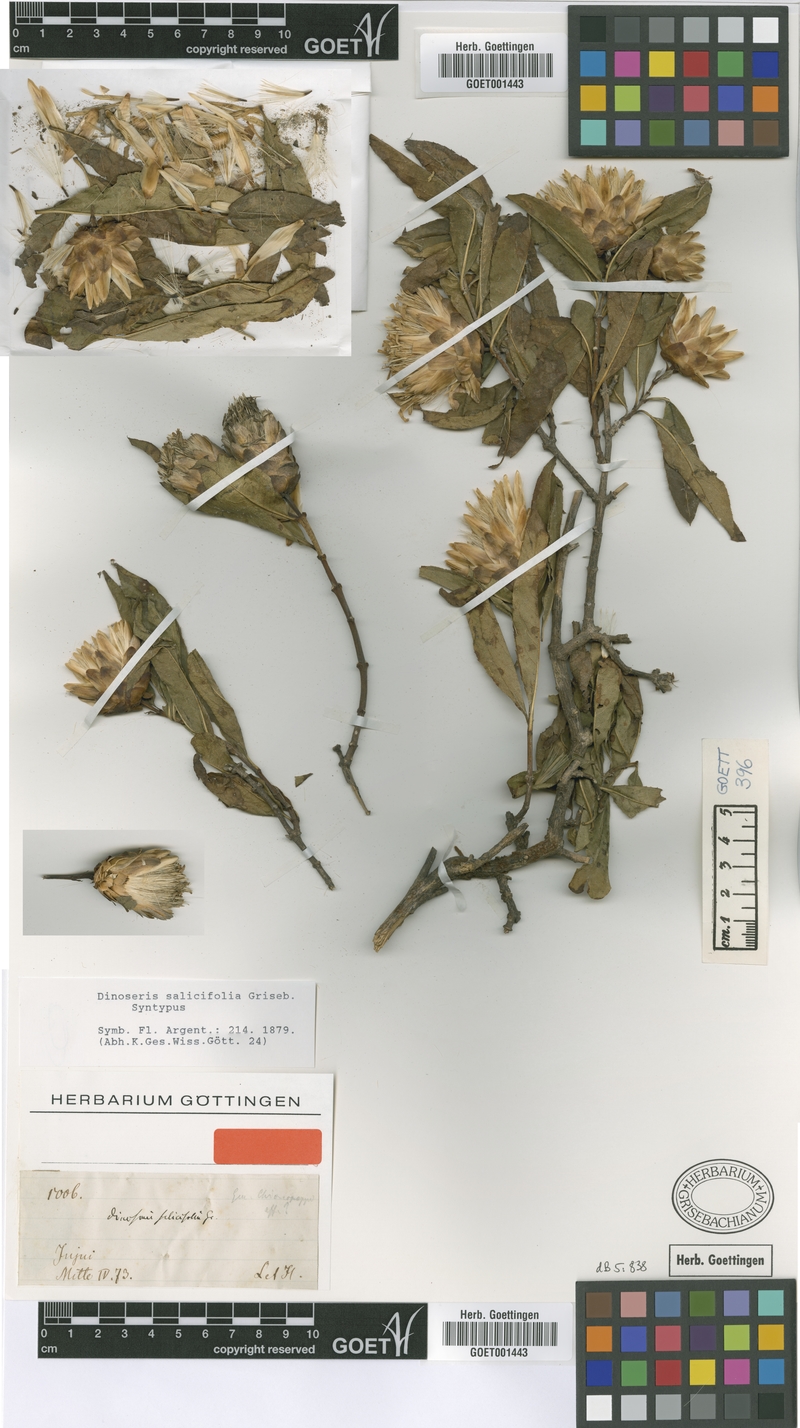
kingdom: Plantae
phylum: Tracheophyta
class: Magnoliopsida
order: Asterales
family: Asteraceae
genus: Hyaloseris
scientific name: Hyaloseris salicifolia
